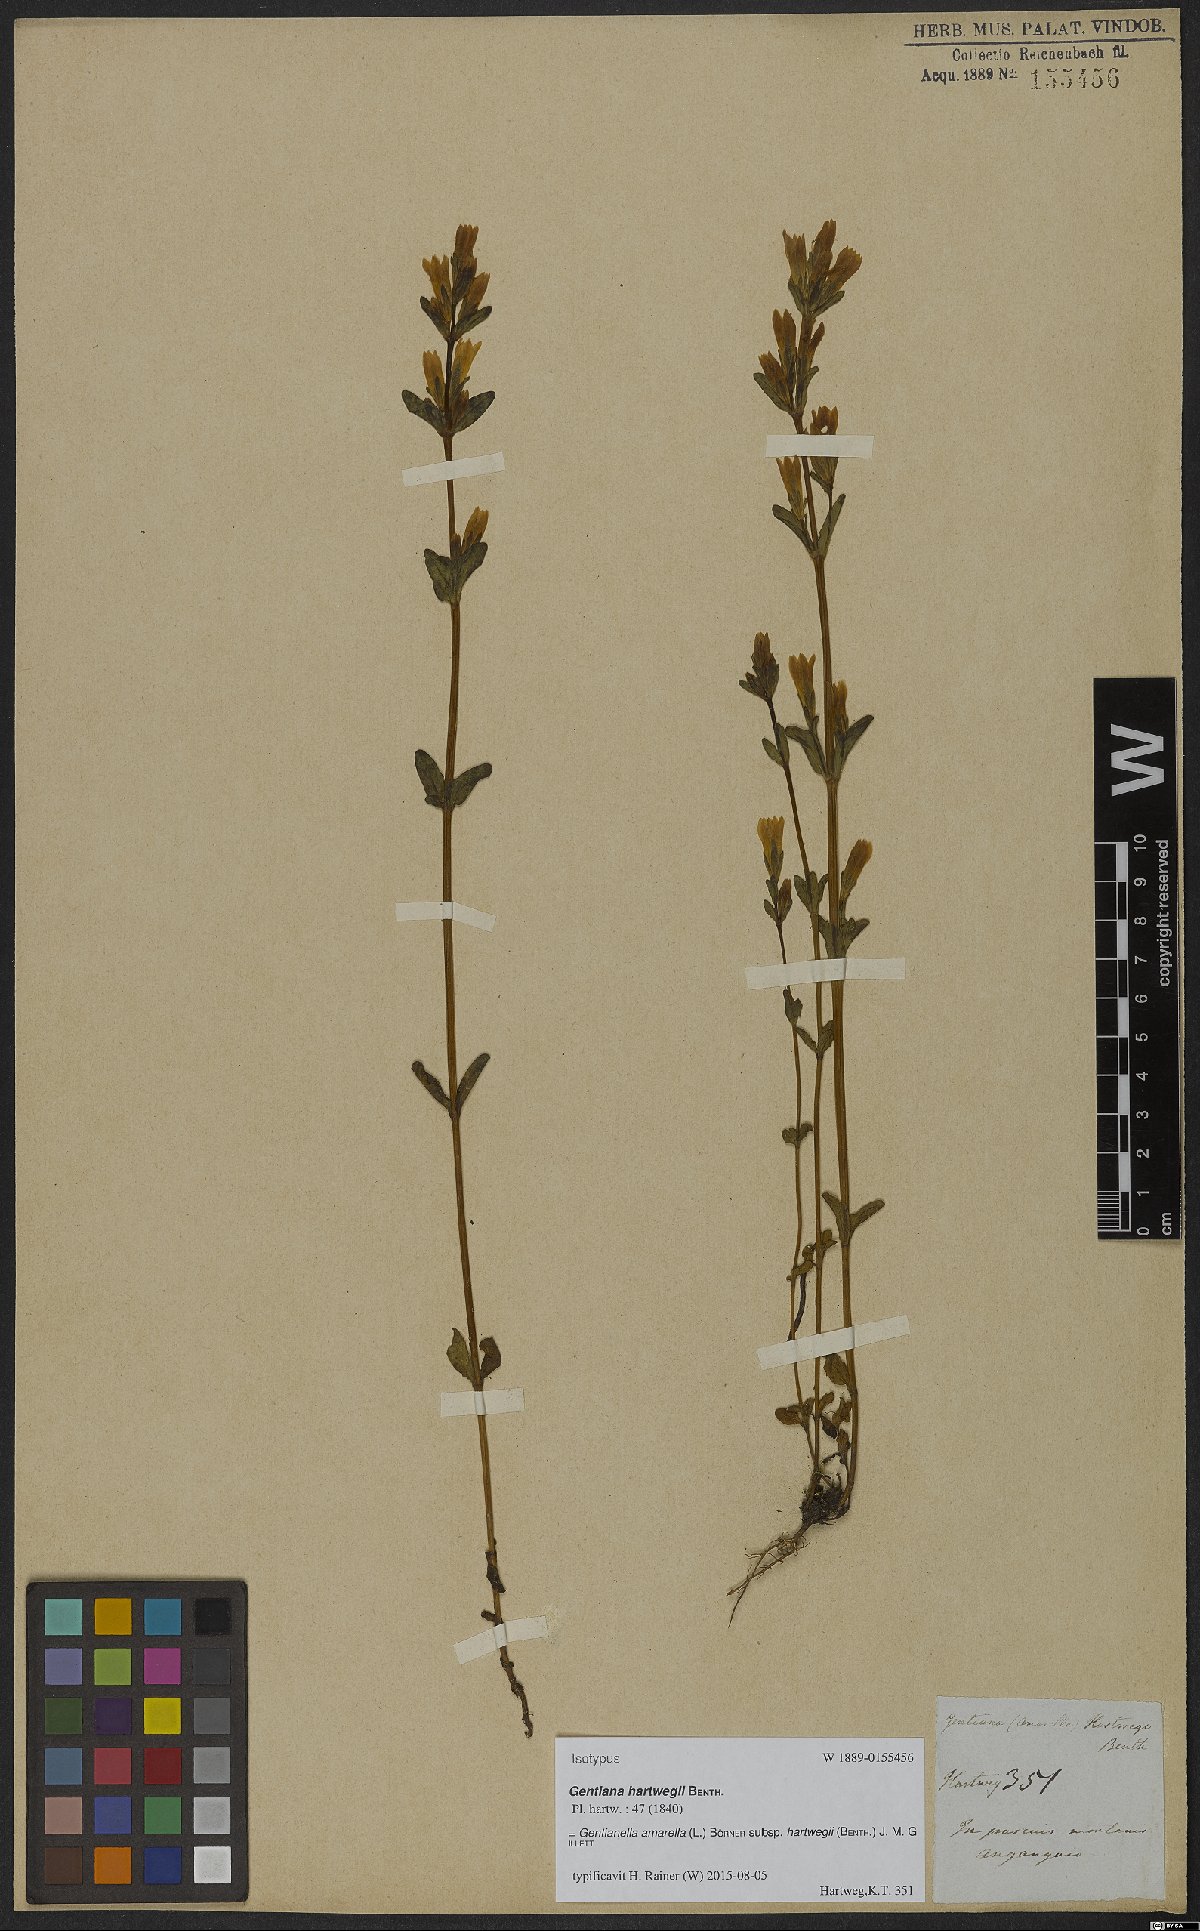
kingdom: Plantae
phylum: Tracheophyta
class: Magnoliopsida
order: Gentianales
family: Gentianaceae
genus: Gentianella
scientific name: Gentianella amarella
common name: Autumn gentian
